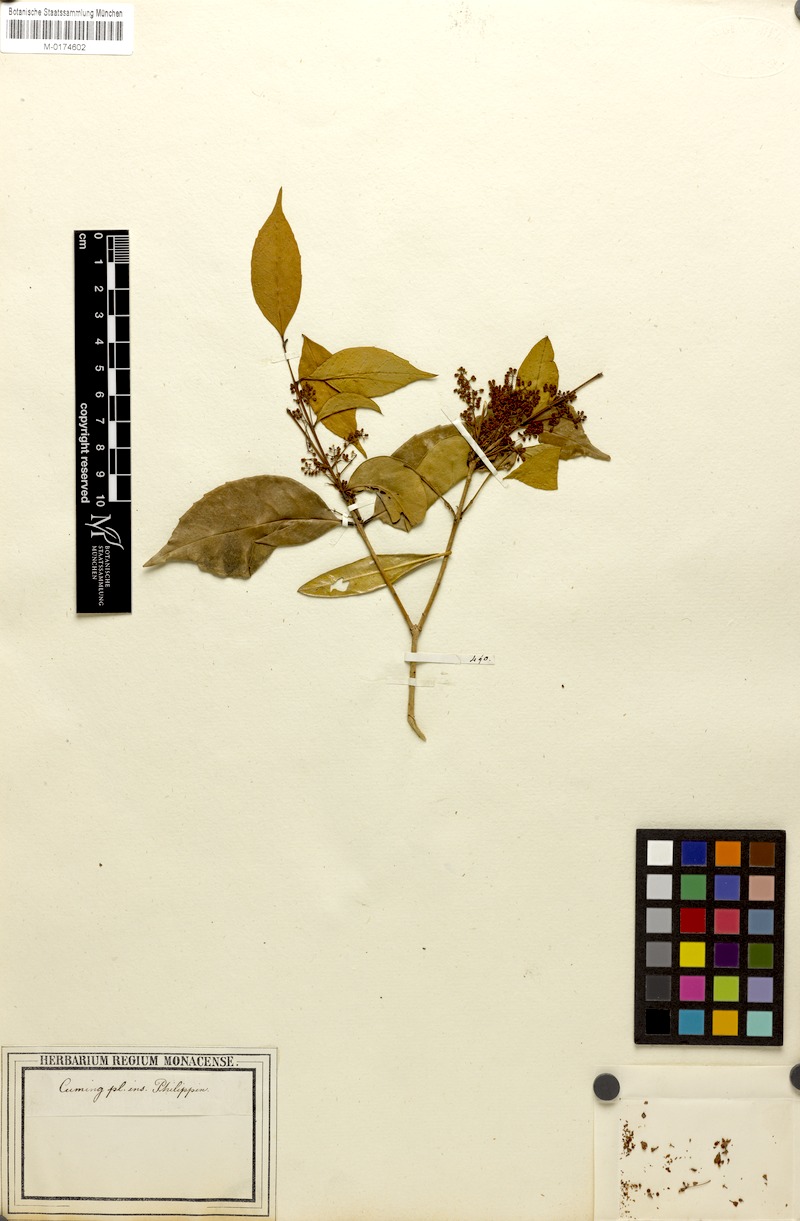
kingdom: Plantae
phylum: Tracheophyta
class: Magnoliopsida
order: Lamiales
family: Oleaceae
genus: Olea
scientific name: Olea
